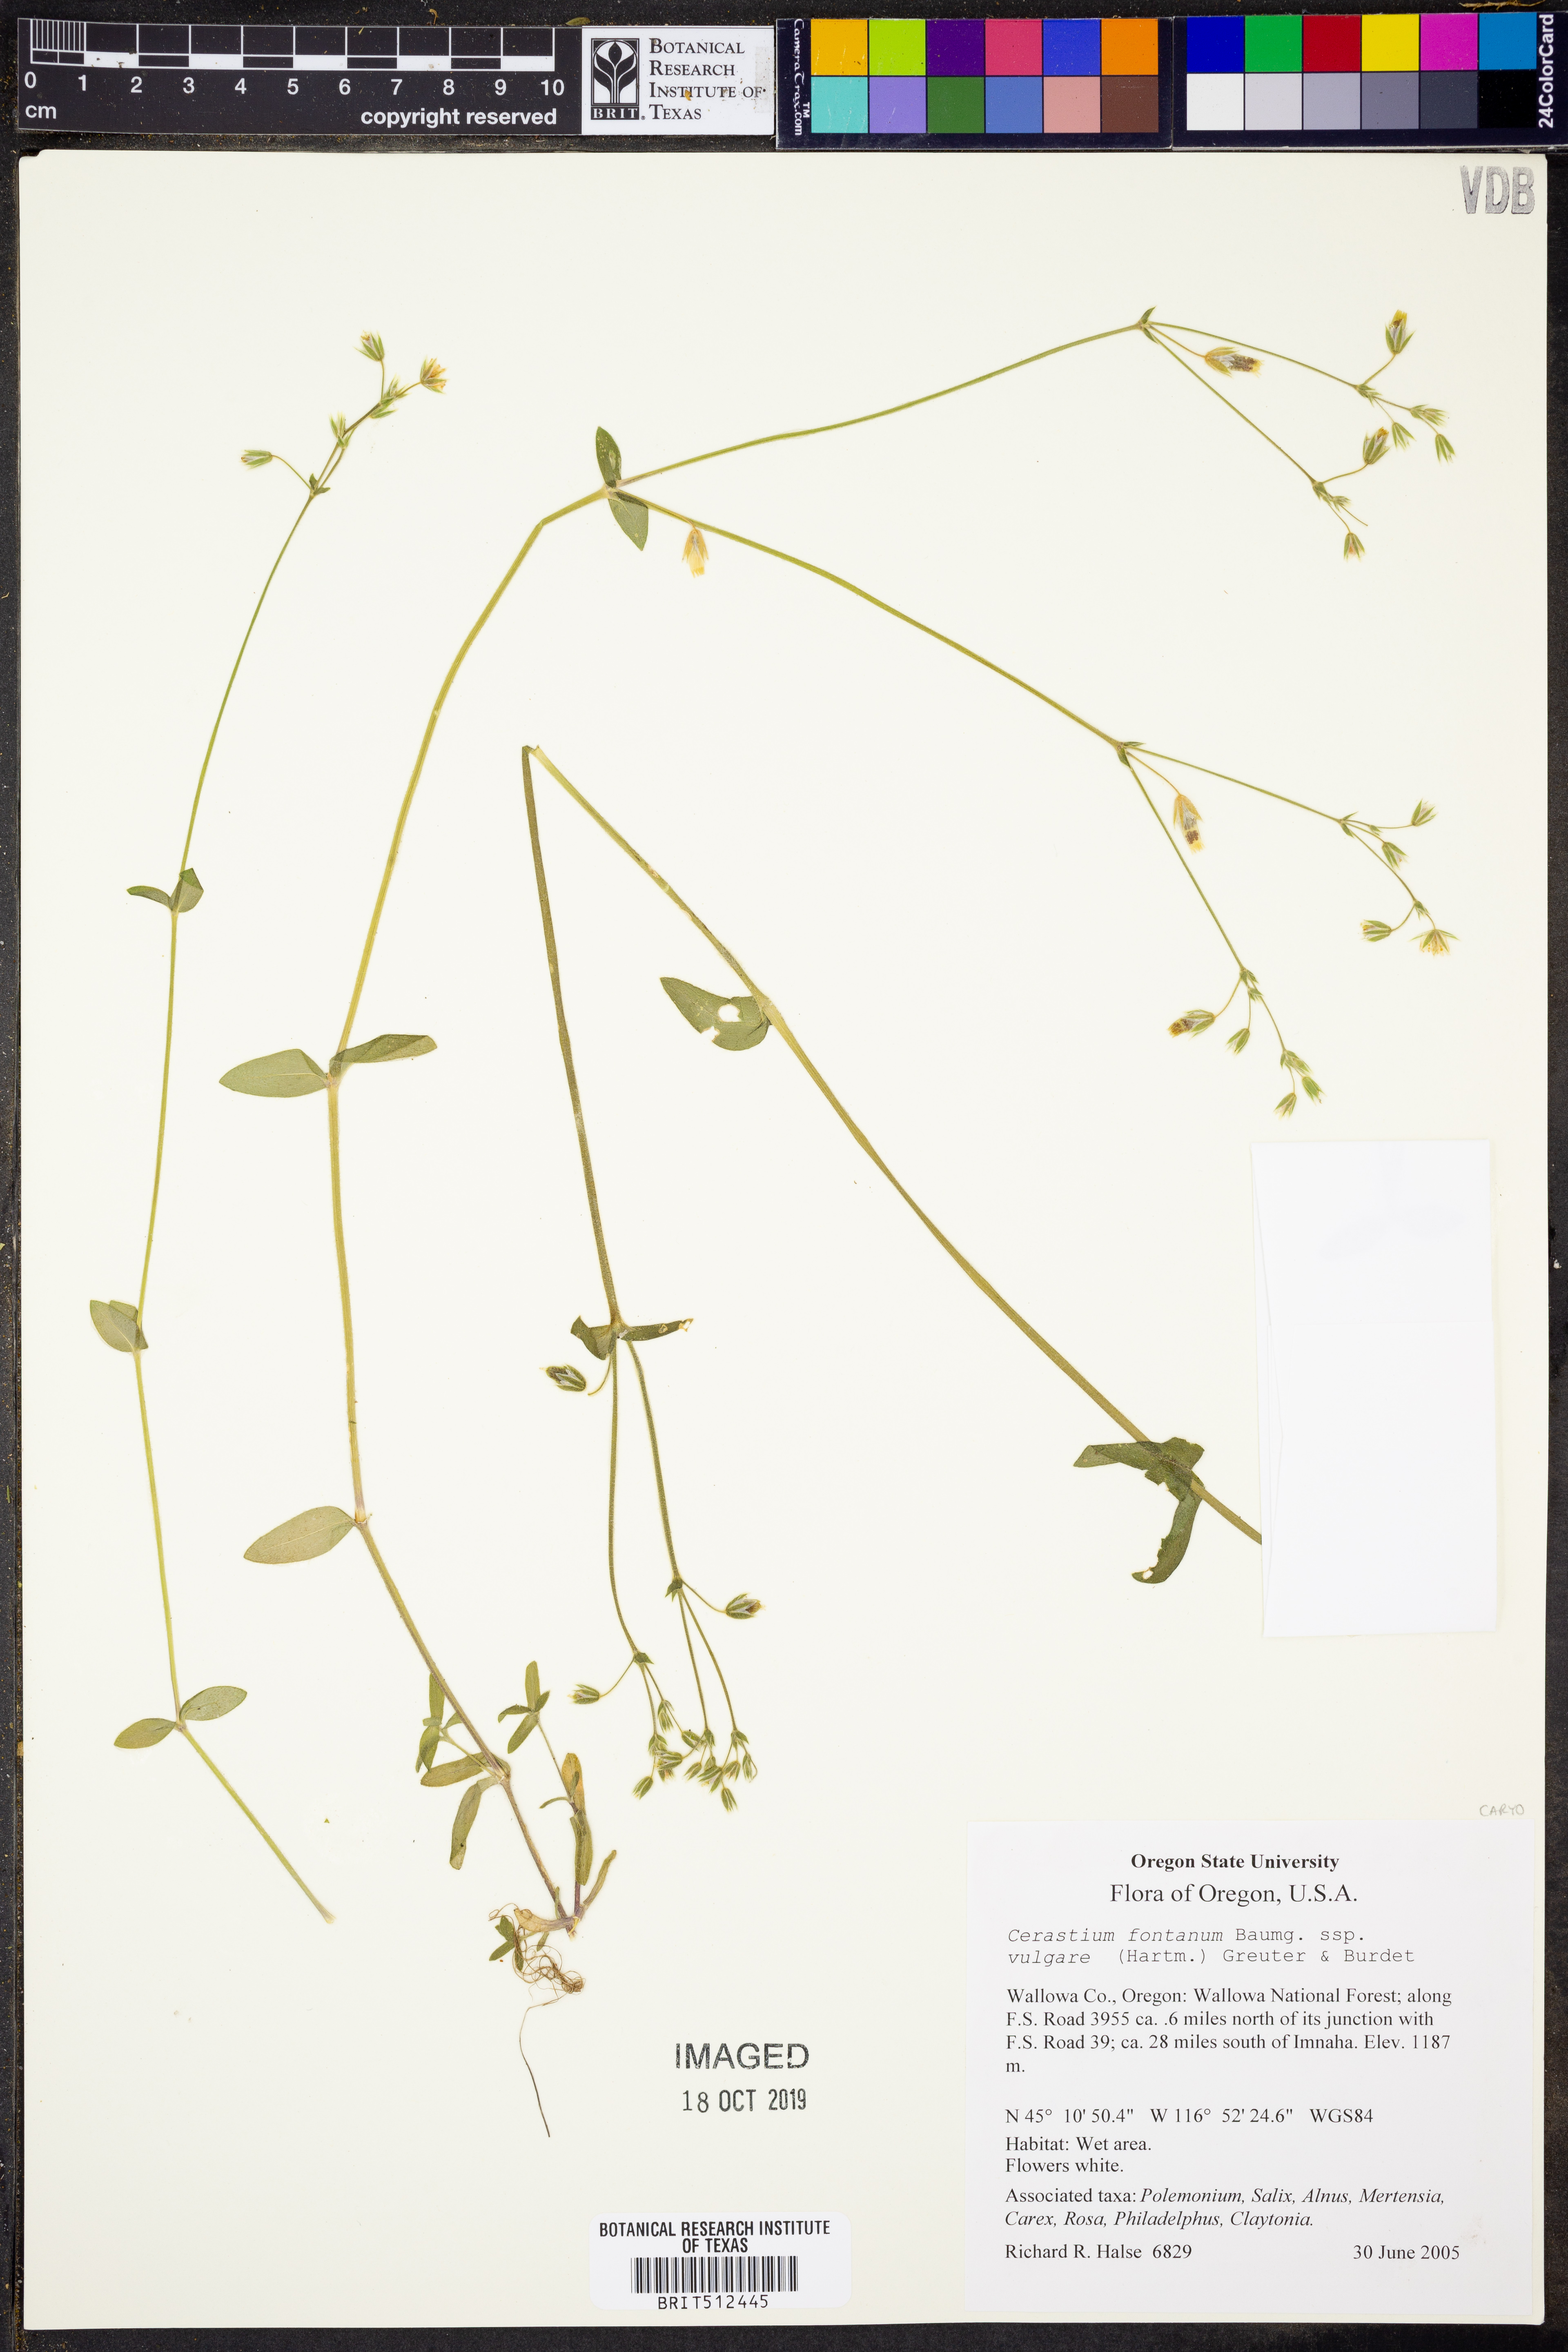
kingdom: Plantae
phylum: Tracheophyta
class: Magnoliopsida
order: Caryophyllales
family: Caryophyllaceae
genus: Cerastium
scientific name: Cerastium fontanum
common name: Common mouse-ear
